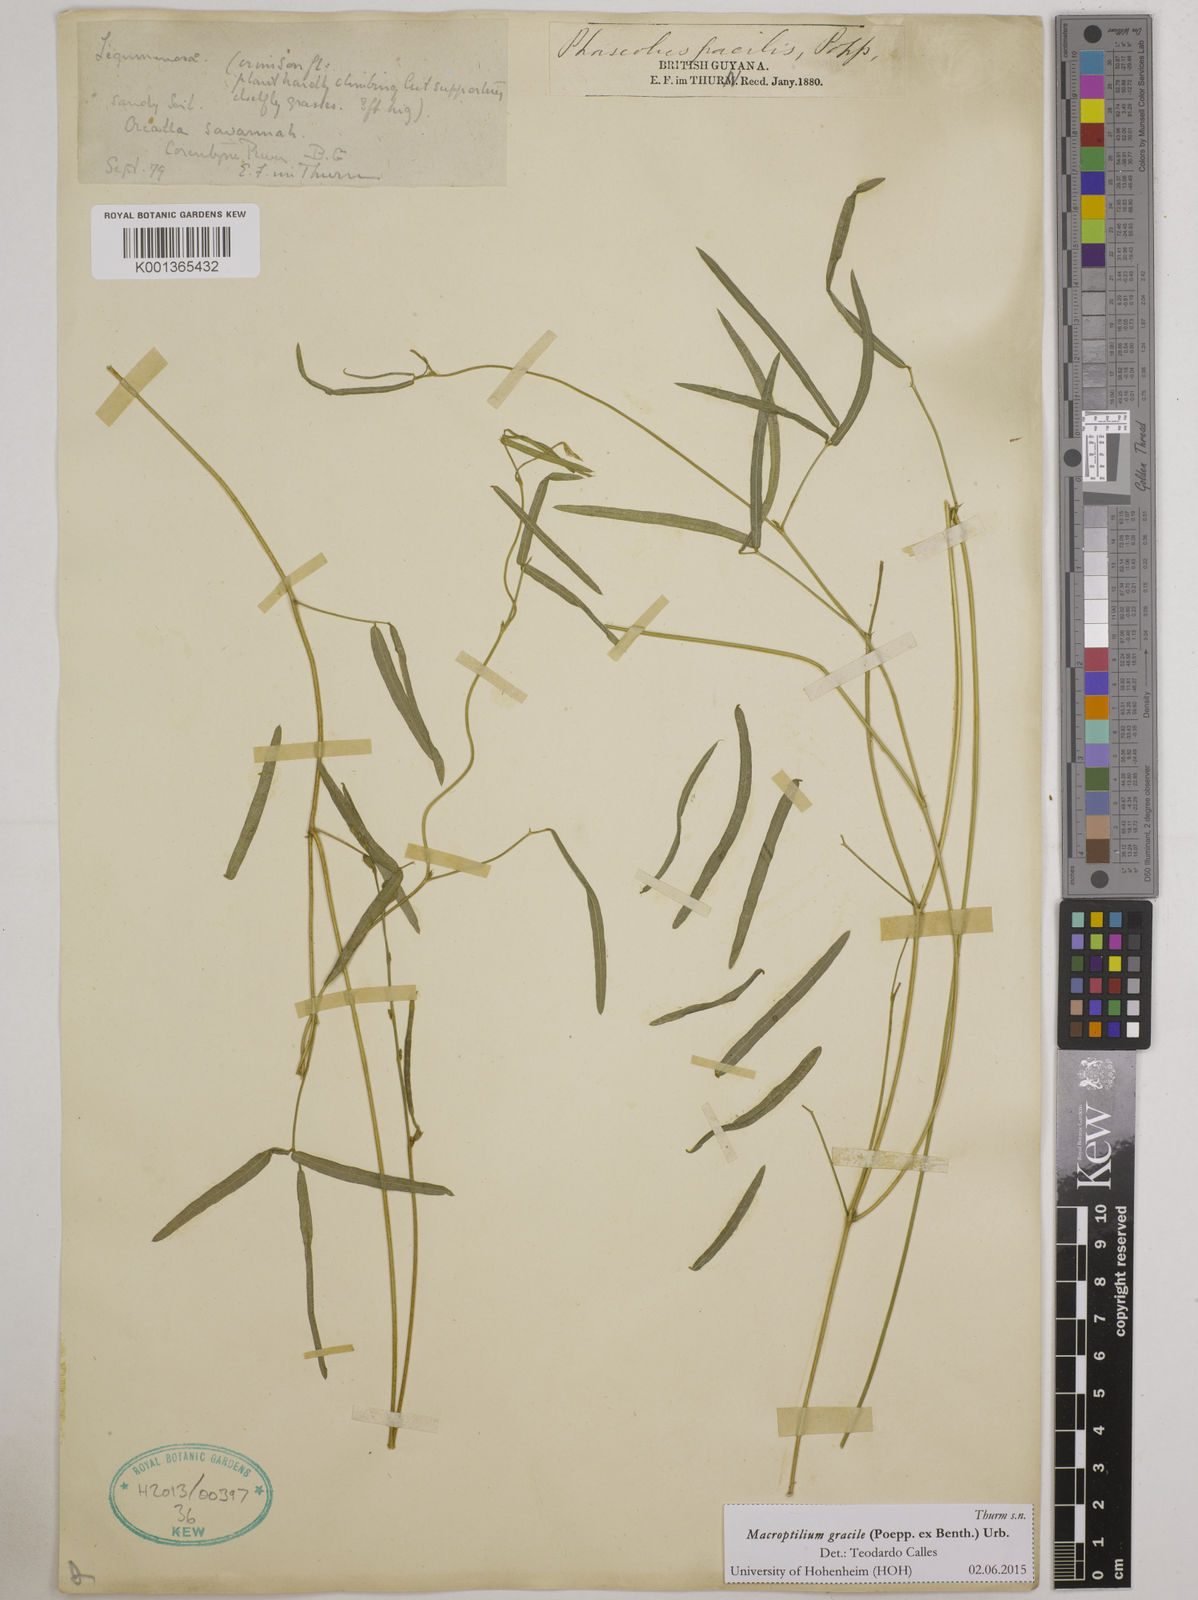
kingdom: Plantae
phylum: Tracheophyta
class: Magnoliopsida
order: Fabales
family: Fabaceae
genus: Macroptilium
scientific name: Macroptilium gracile
